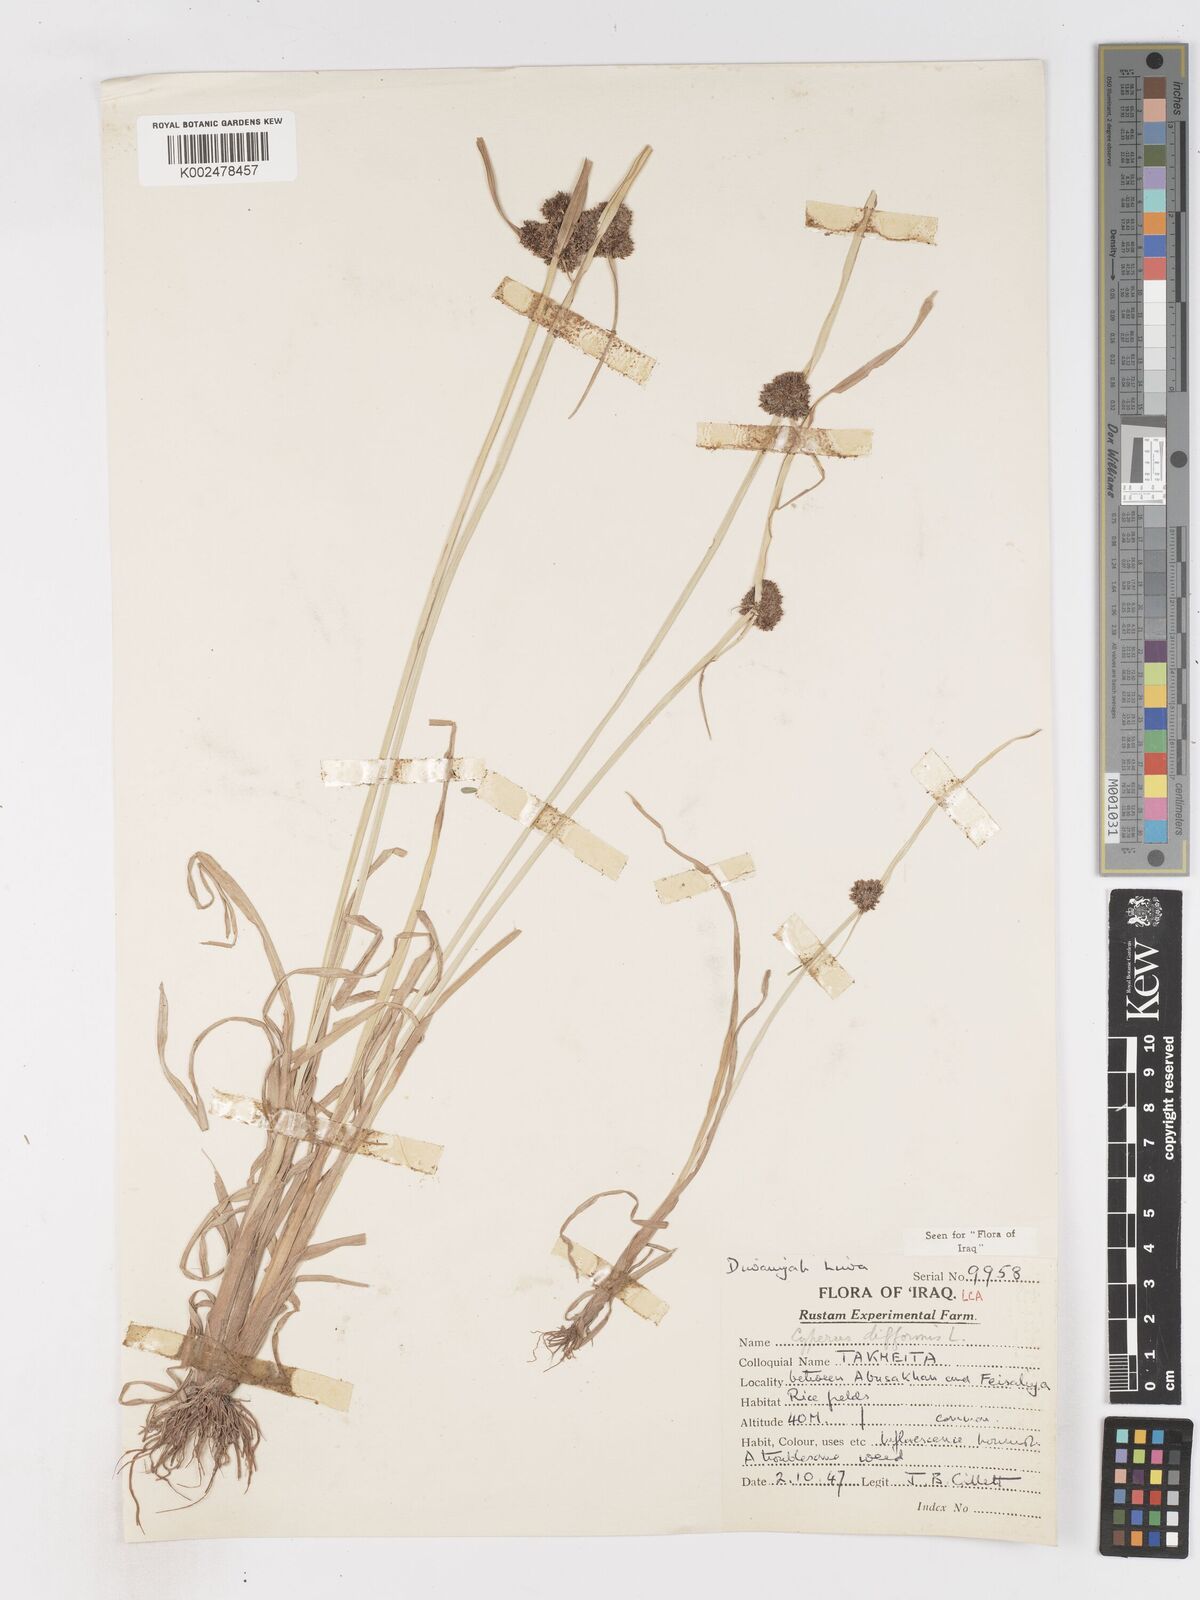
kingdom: Plantae
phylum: Tracheophyta
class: Liliopsida
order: Poales
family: Cyperaceae
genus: Cyperus
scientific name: Cyperus difformis
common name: Variable flatsedge
